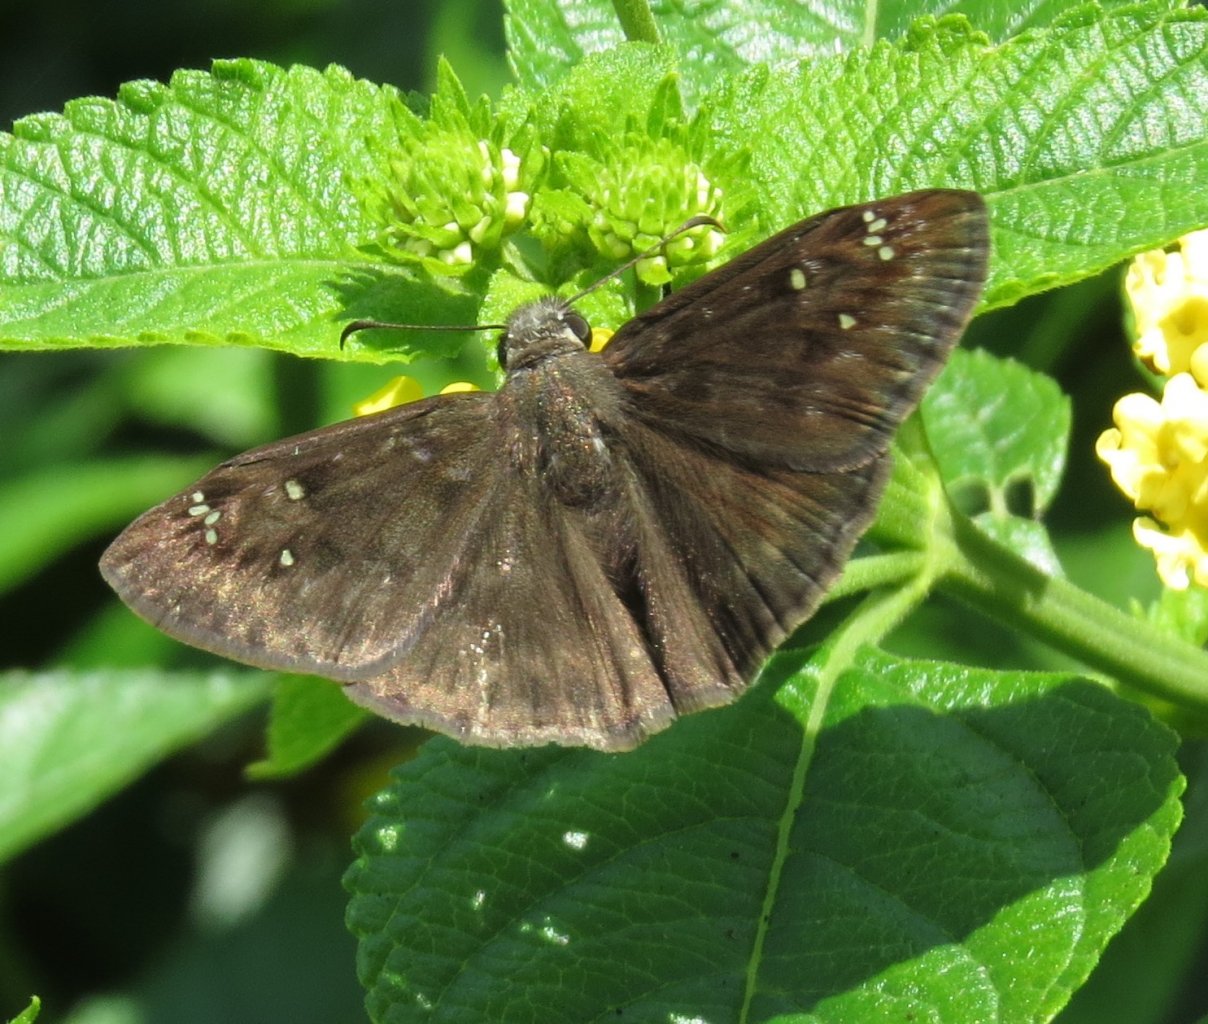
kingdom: Animalia
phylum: Arthropoda
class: Insecta
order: Lepidoptera
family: Hesperiidae
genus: Gesta
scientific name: Gesta
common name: Horace's Duskywing
